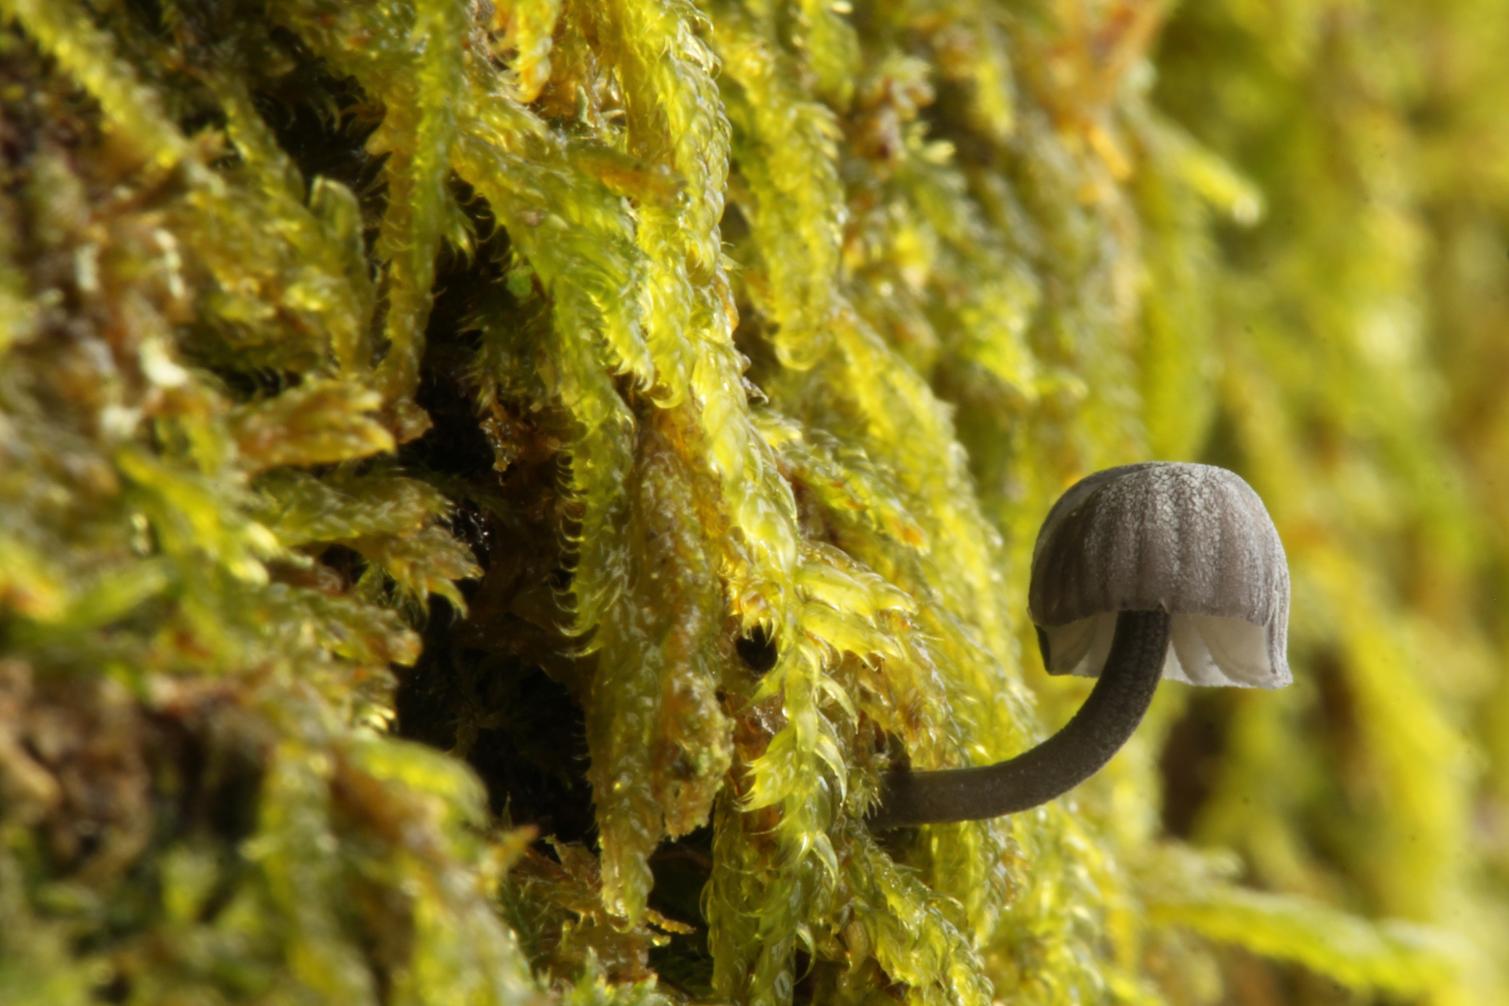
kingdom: Fungi
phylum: Basidiomycota
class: Agaricomycetes
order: Agaricales
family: Mycenaceae
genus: Mycena
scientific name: Mycena pseudocorticola
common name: gråblå bark-huesvamp
